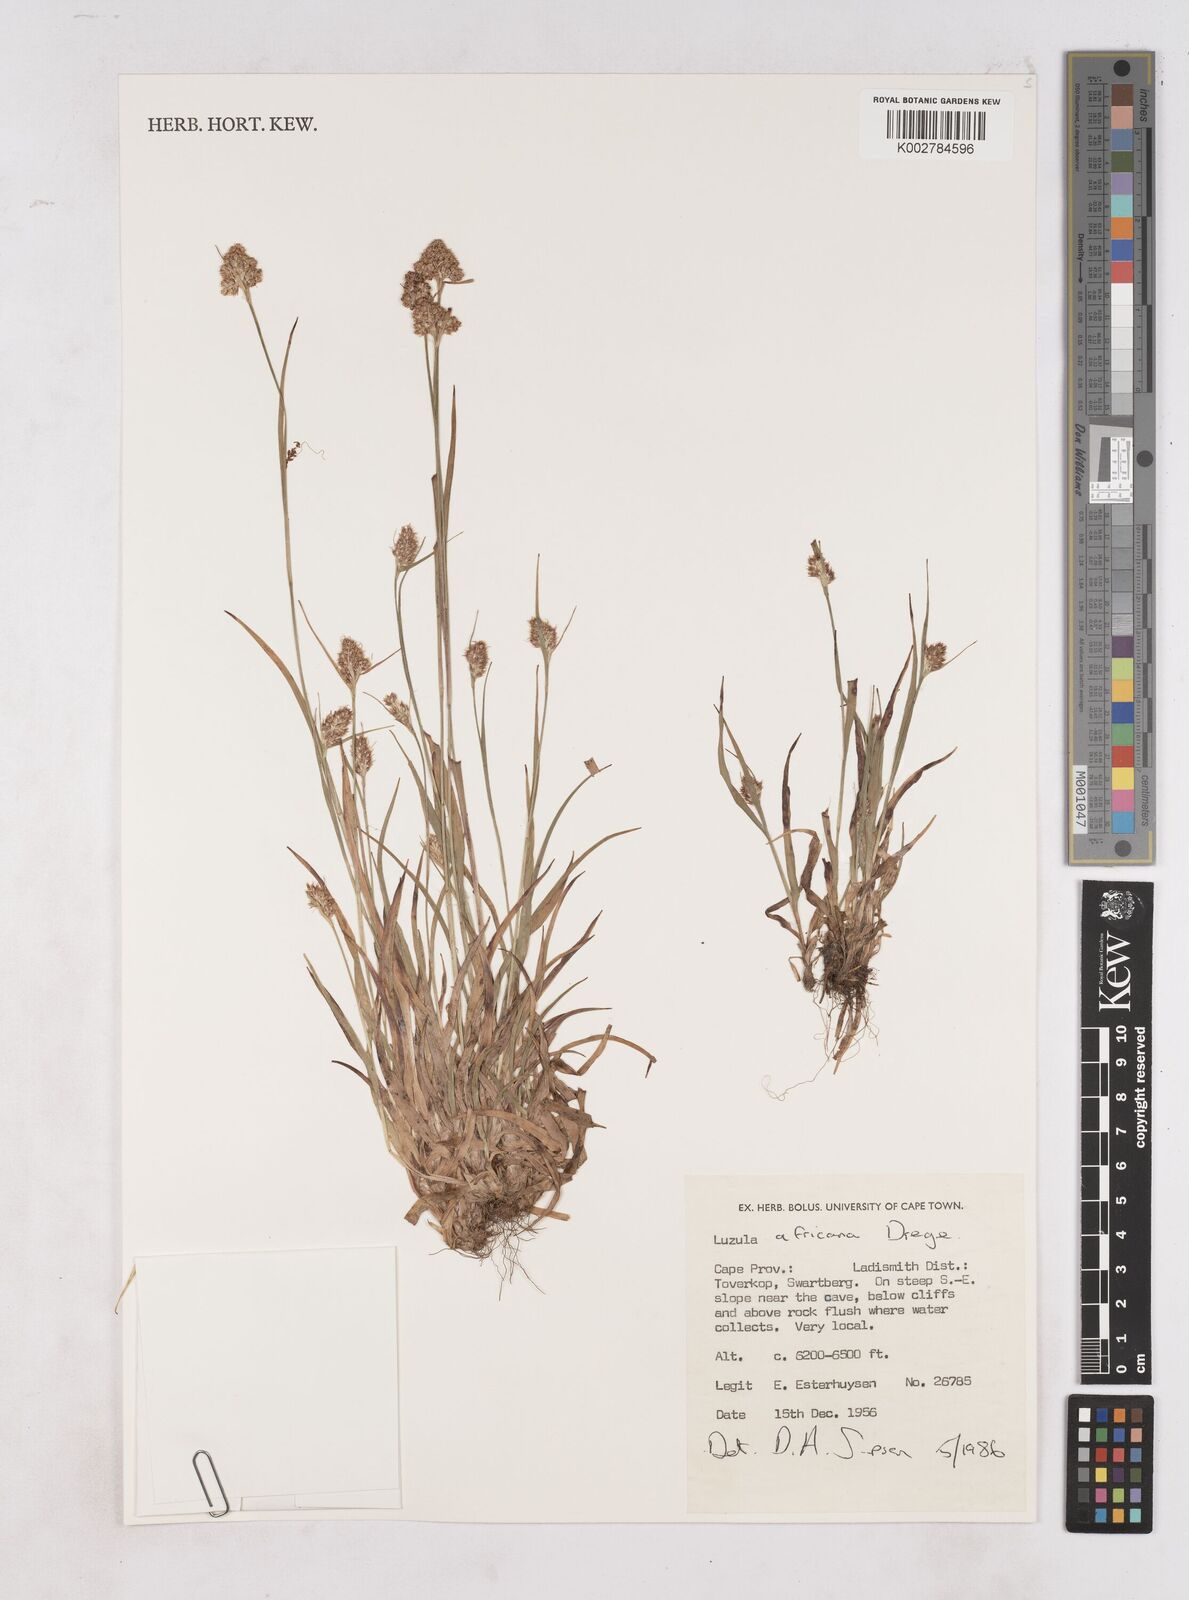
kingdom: Plantae
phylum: Tracheophyta
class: Liliopsida
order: Poales
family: Juncaceae
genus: Luzula
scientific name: Luzula africana
